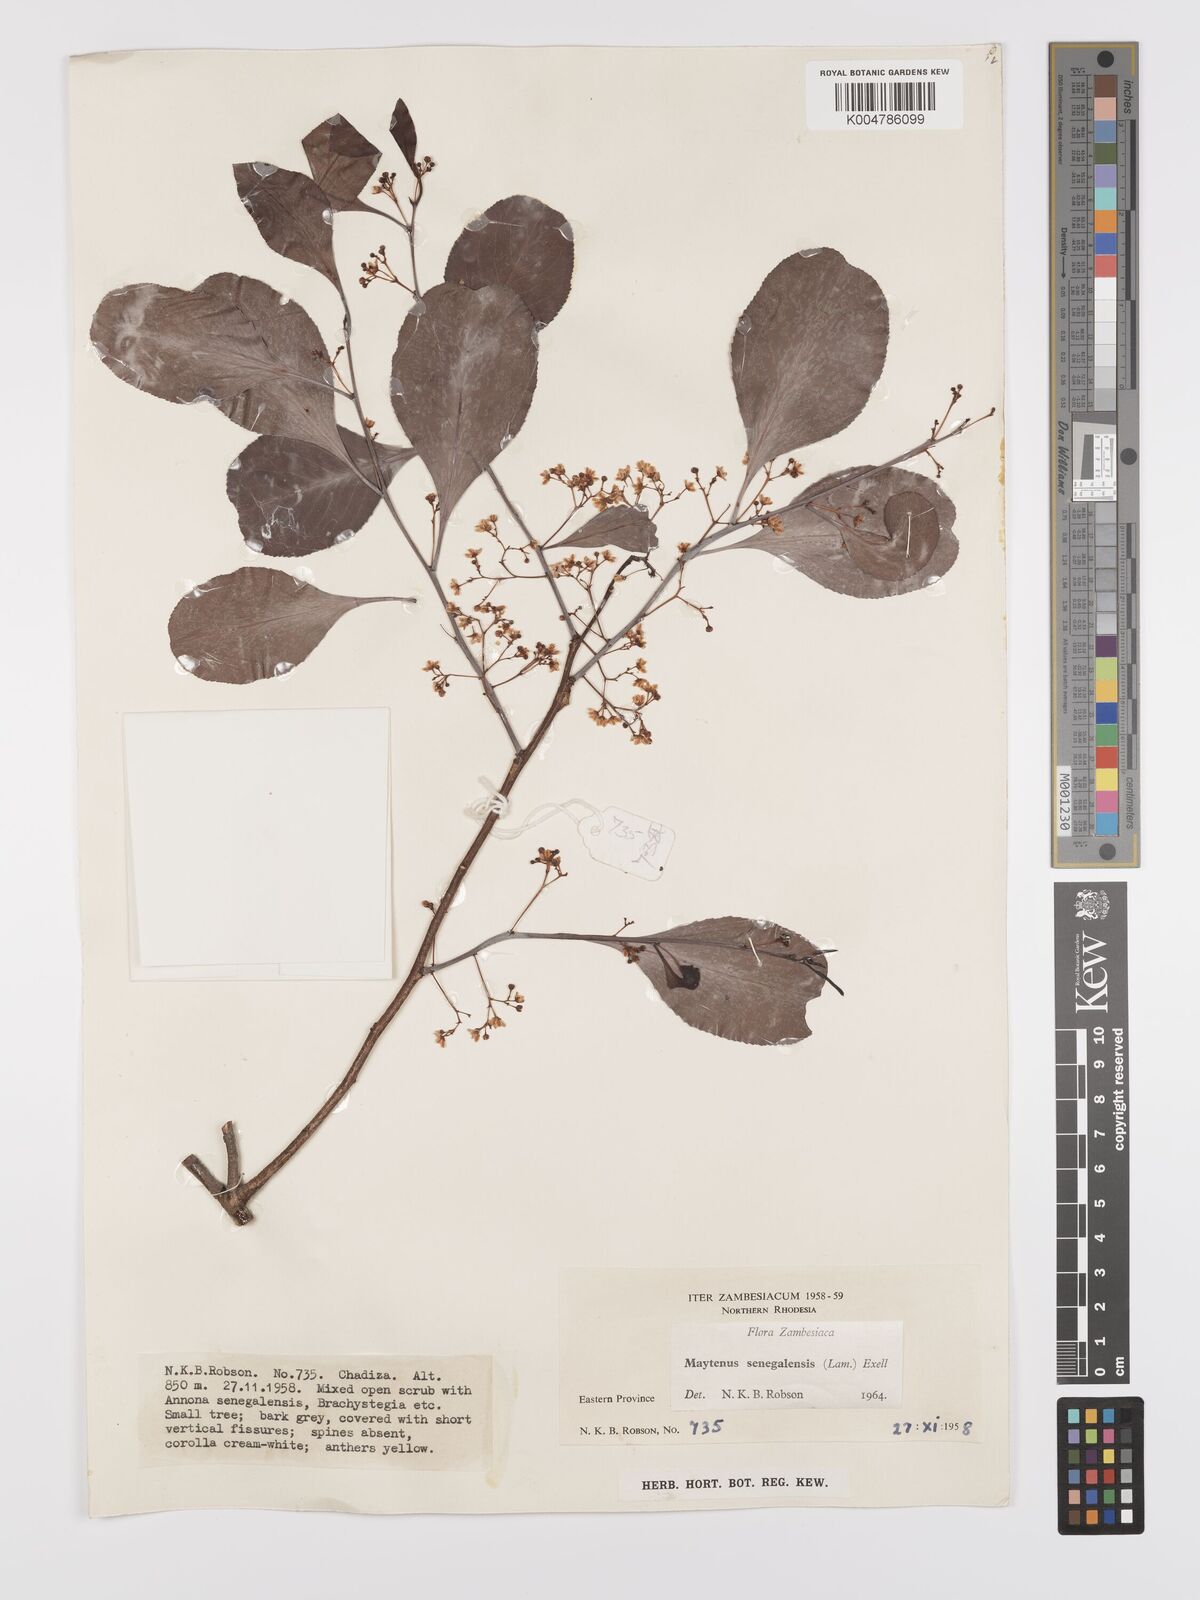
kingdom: Plantae
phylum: Tracheophyta
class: Magnoliopsida
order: Celastrales
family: Celastraceae
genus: Gymnosporia
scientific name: Gymnosporia senegalensis
